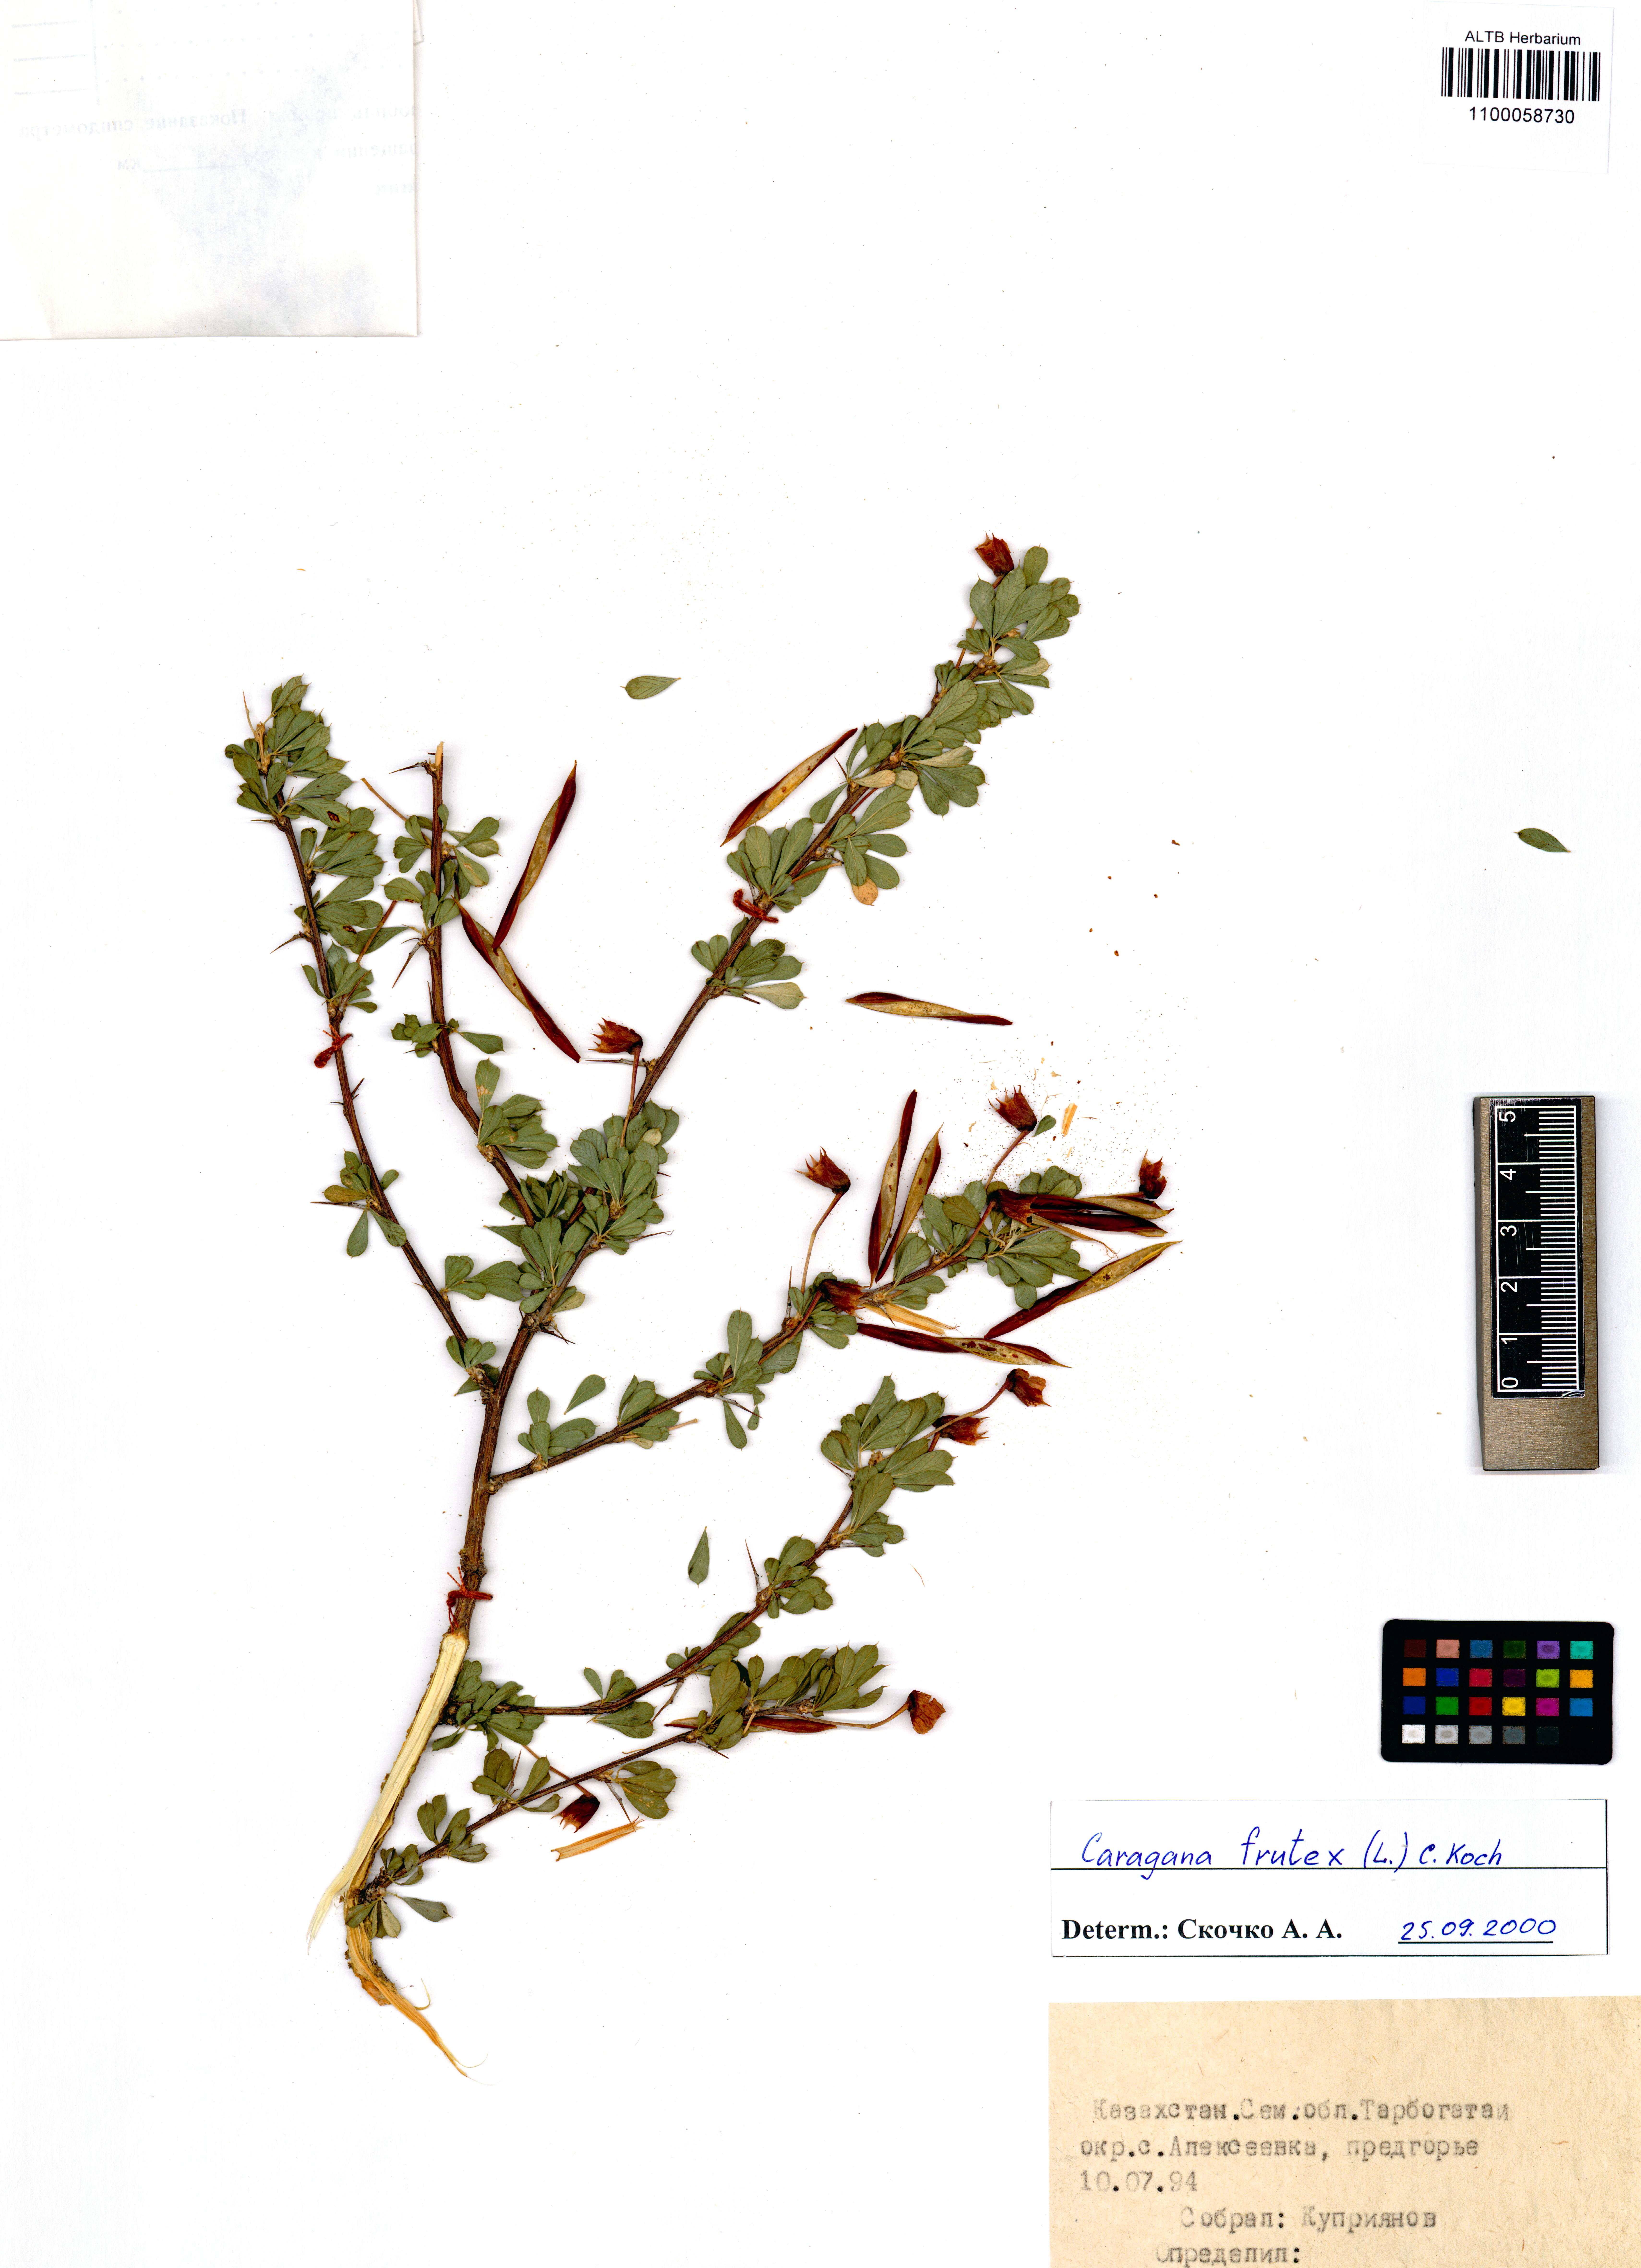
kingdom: Plantae
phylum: Tracheophyta
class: Magnoliopsida
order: Fabales
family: Fabaceae
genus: Caragana
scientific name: Caragana frutex
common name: Russian peashrub
